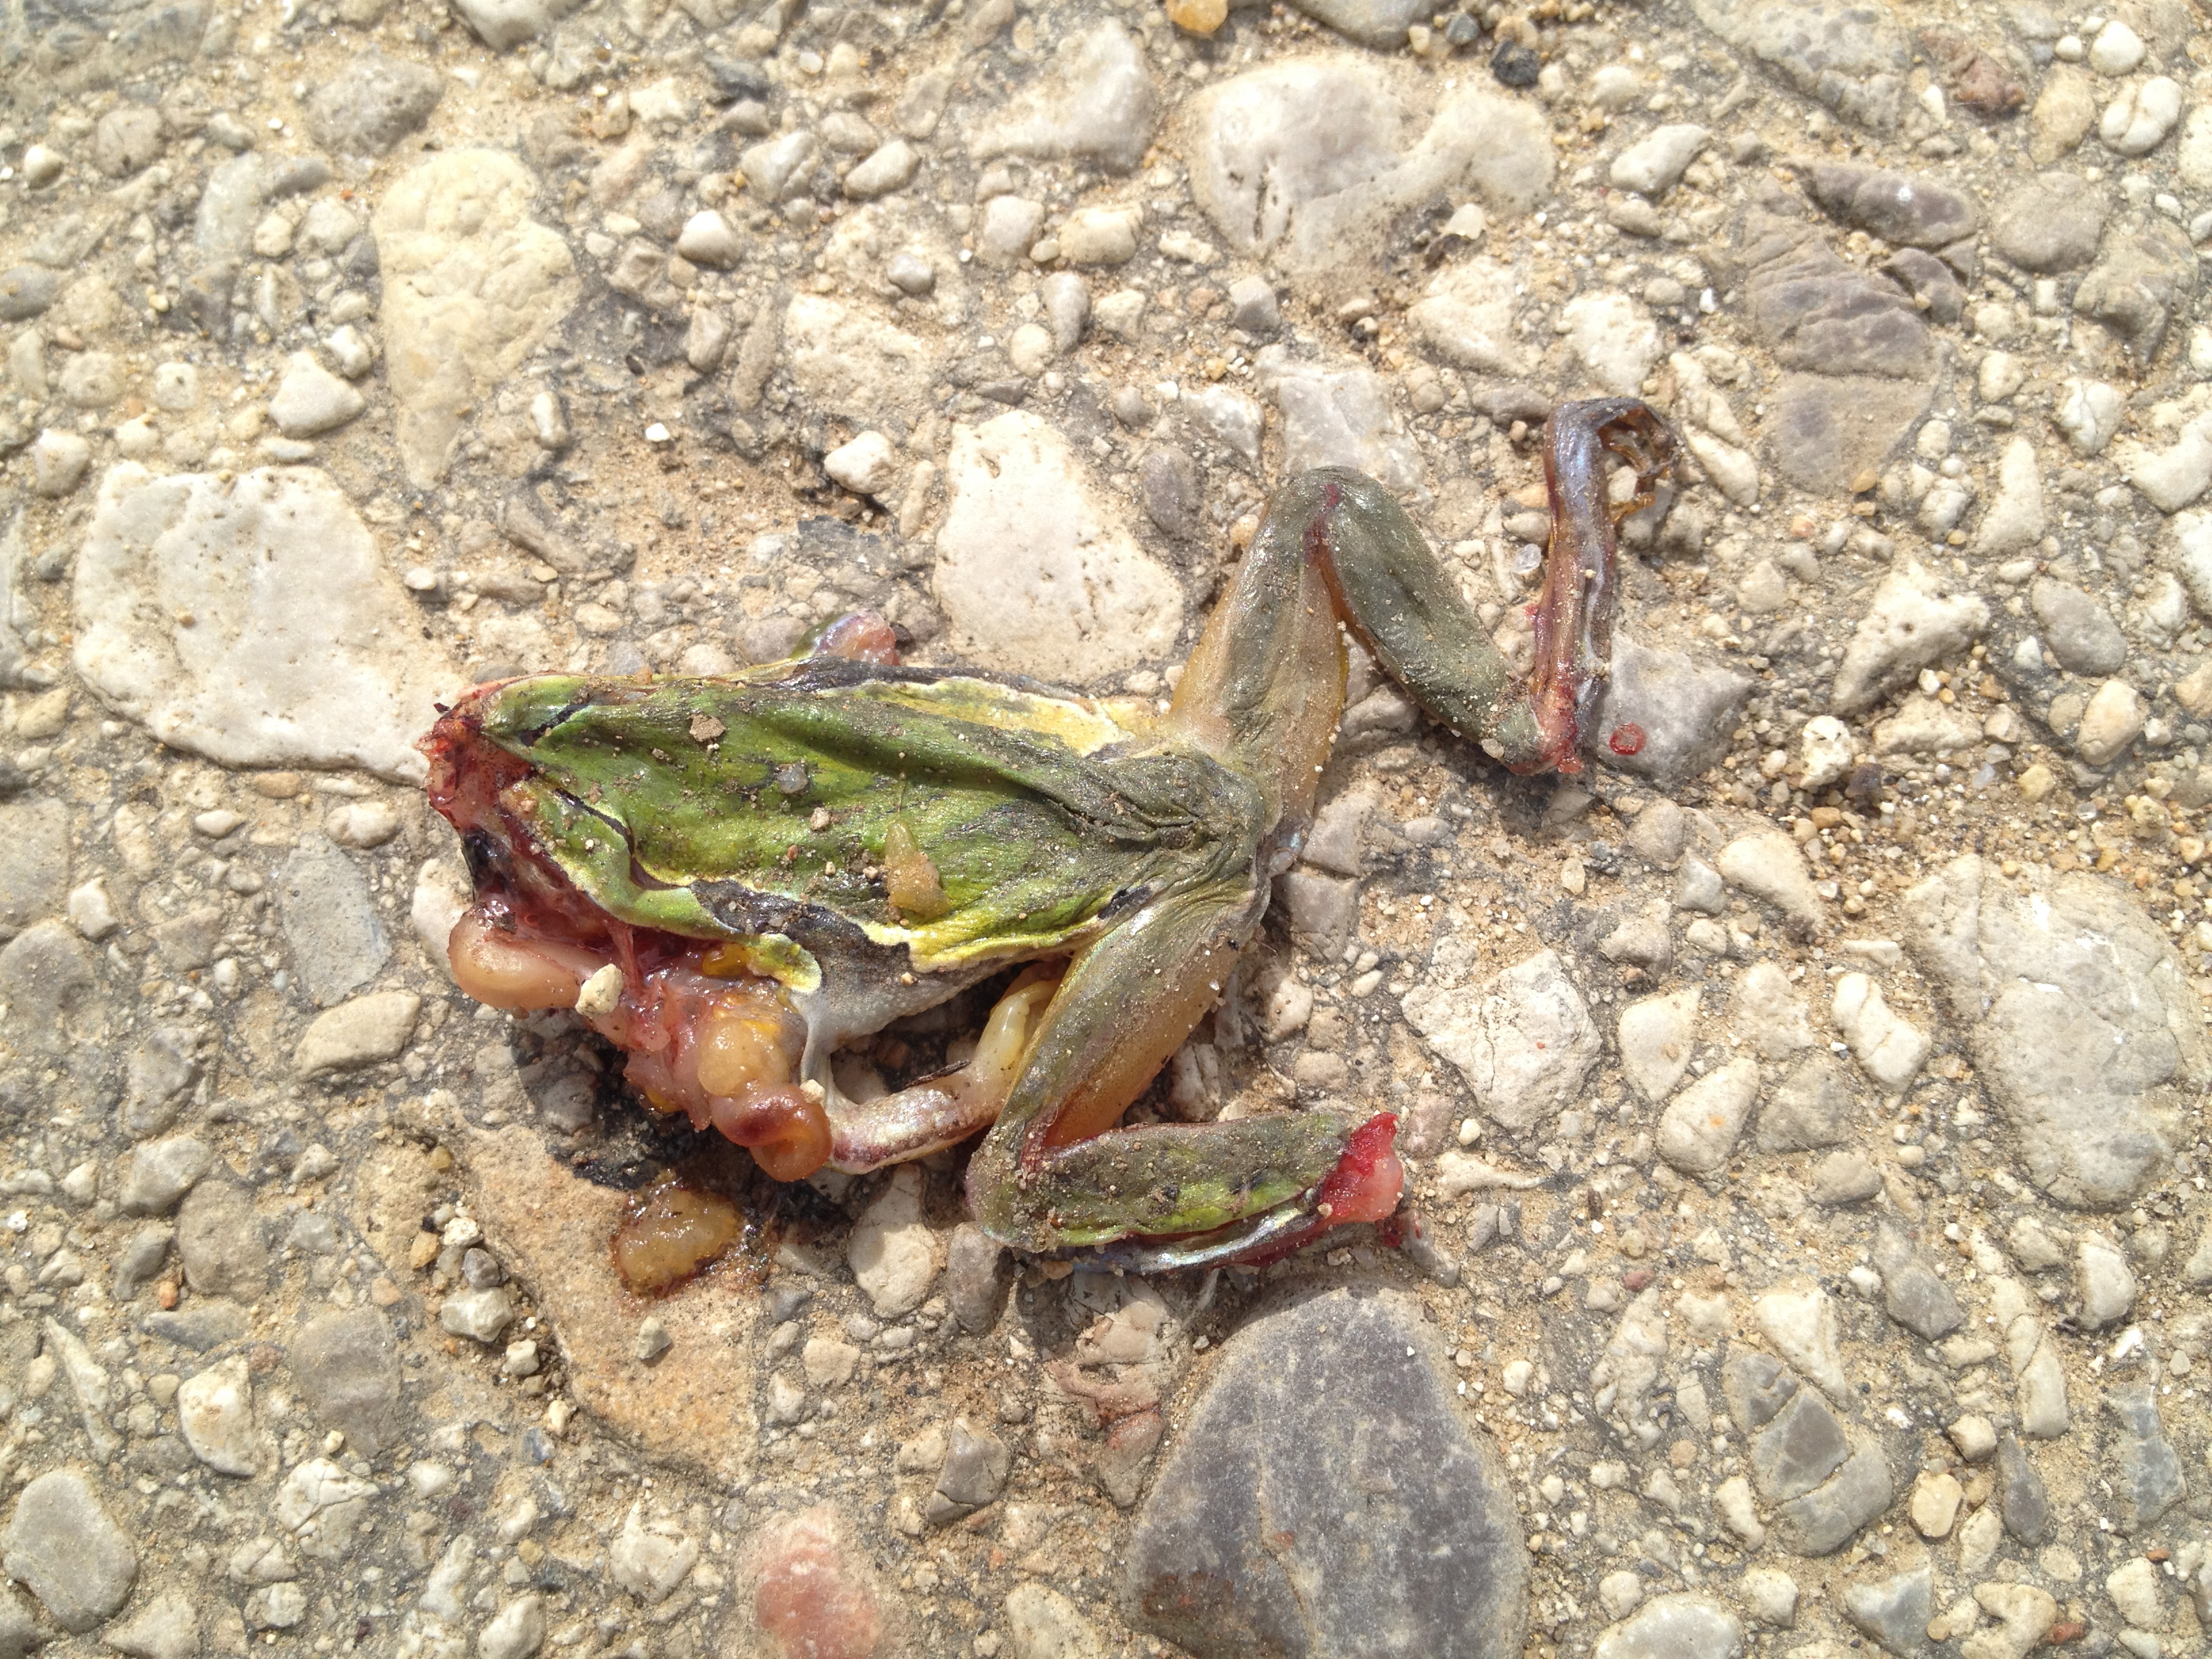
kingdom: Animalia
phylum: Chordata
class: Amphibia
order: Anura
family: Hylidae
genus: Hyla
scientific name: Hyla arborea
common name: Common tree frog
